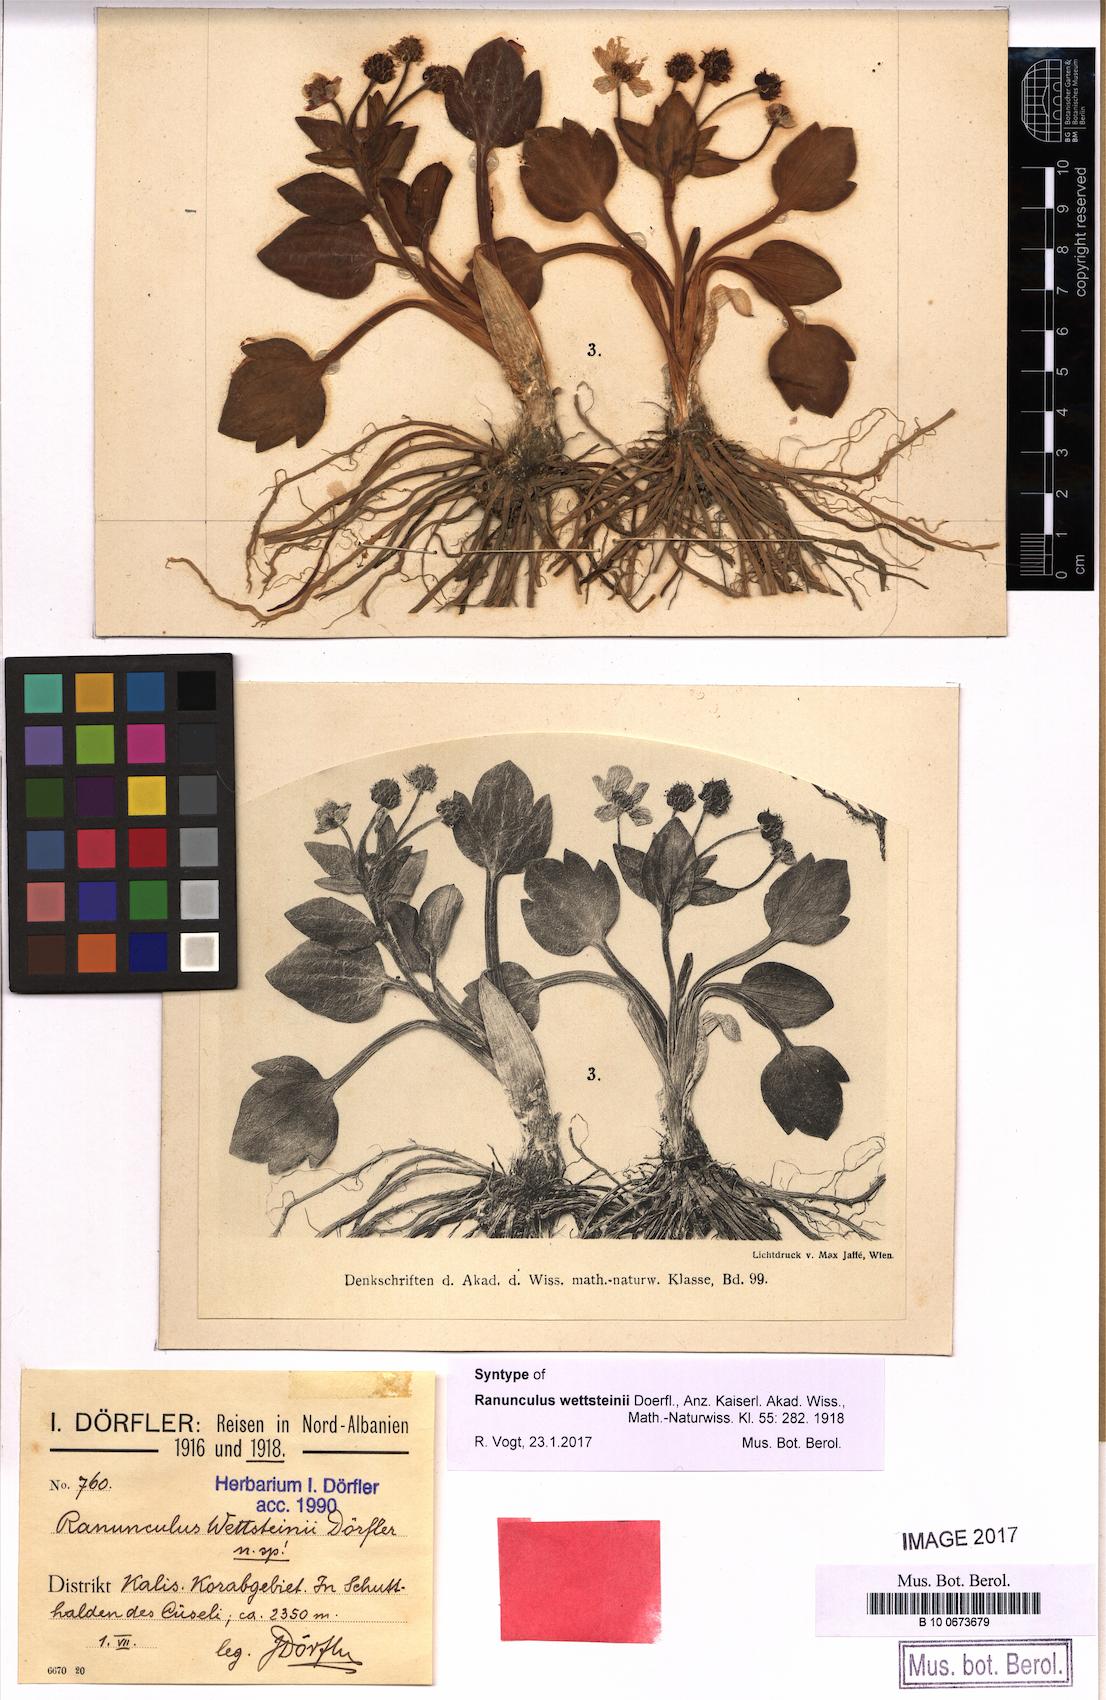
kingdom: Plantae
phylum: Tracheophyta
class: Magnoliopsida
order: Ranunculales
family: Ranunculaceae
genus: Ranunculus
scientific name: Ranunculus wettsteinii
